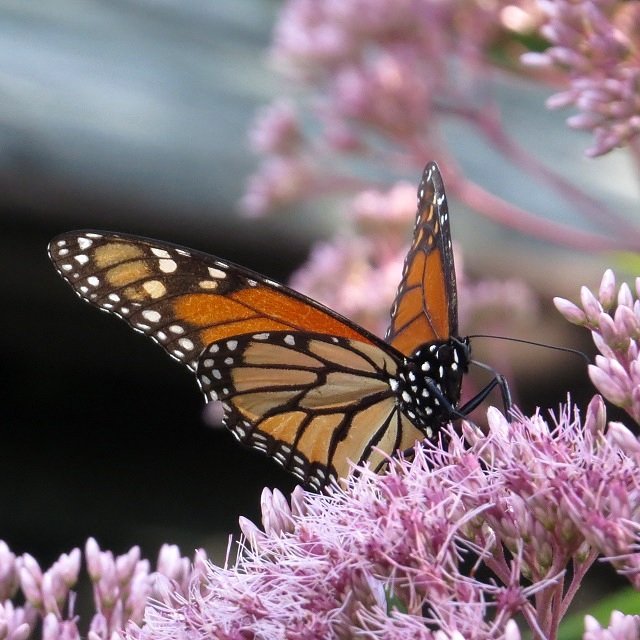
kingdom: Animalia
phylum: Arthropoda
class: Insecta
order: Lepidoptera
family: Nymphalidae
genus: Danaus
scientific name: Danaus plexippus
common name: Monarch
